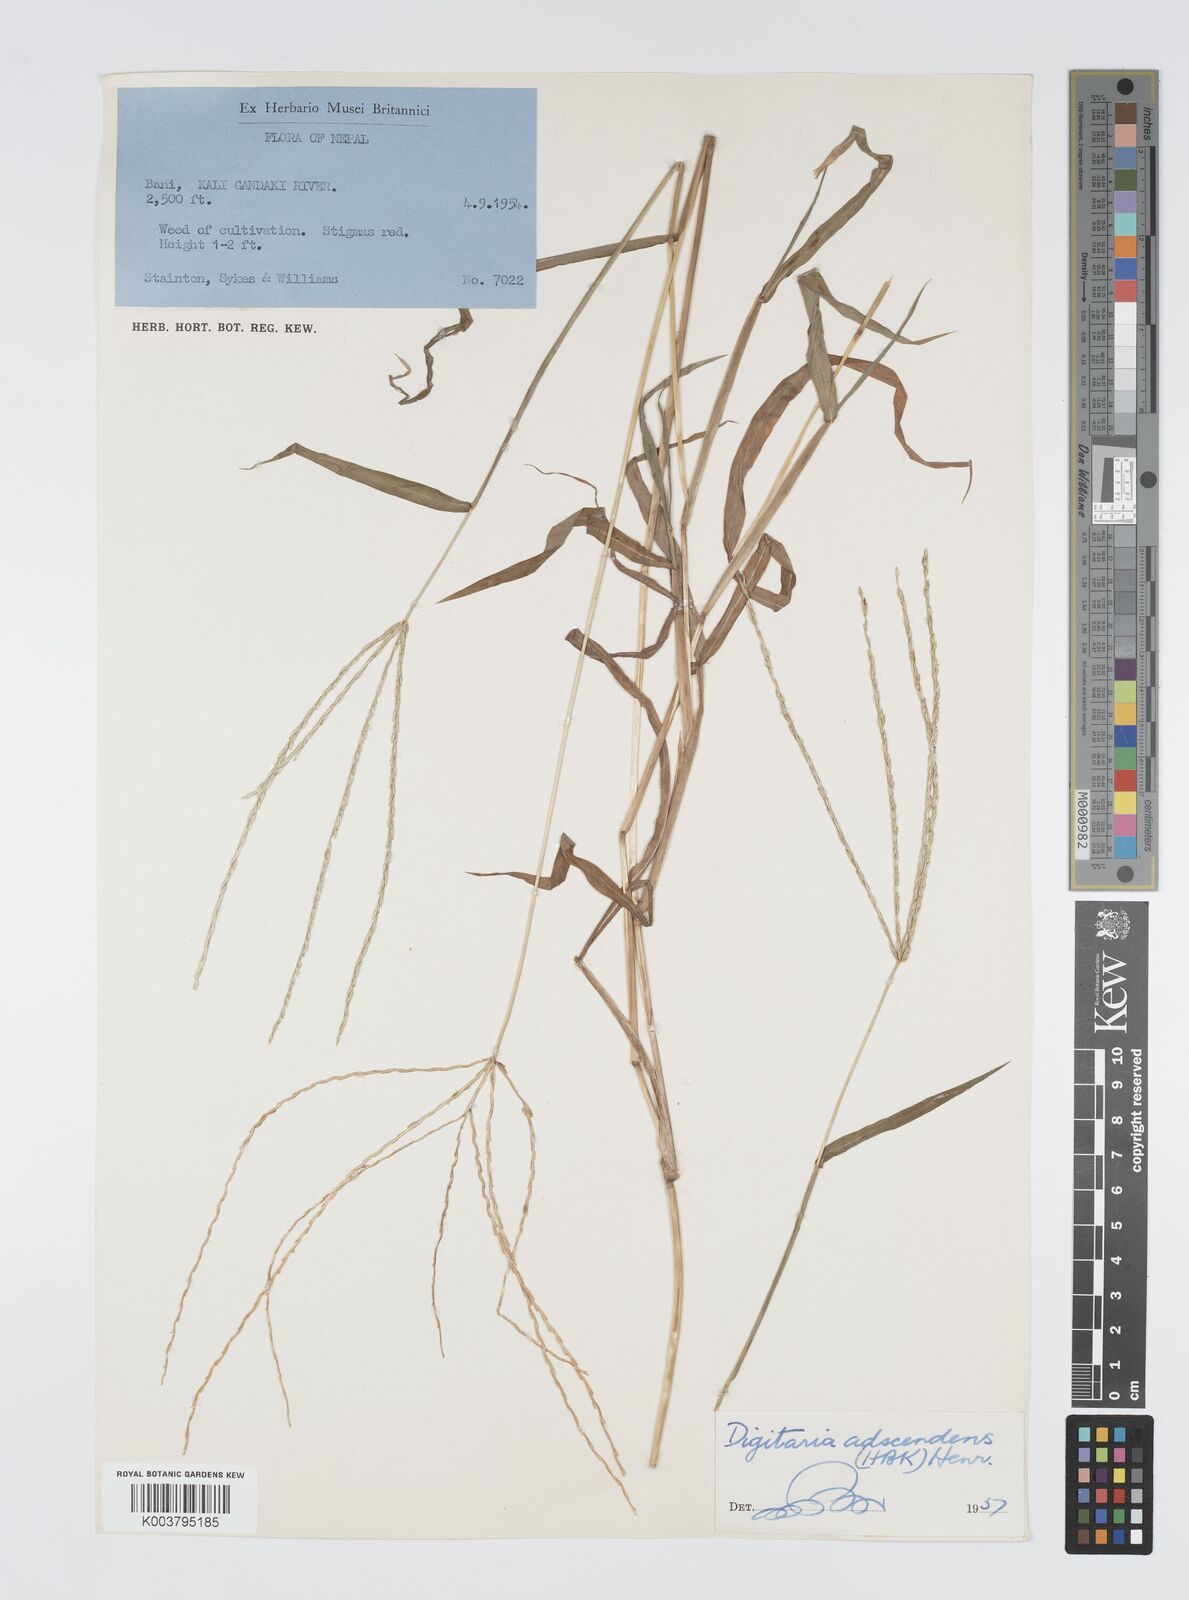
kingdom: Plantae
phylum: Tracheophyta
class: Liliopsida
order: Poales
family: Poaceae
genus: Digitaria
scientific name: Digitaria ciliaris
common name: Tropical finger-grass
